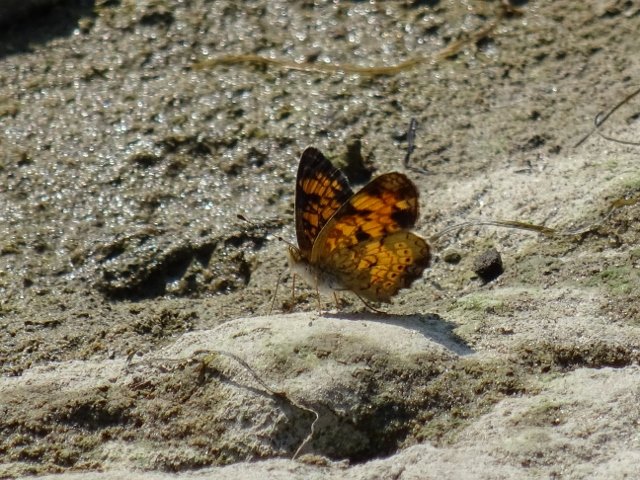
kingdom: Animalia
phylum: Arthropoda
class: Insecta
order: Lepidoptera
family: Nymphalidae
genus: Phyciodes
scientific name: Phyciodes tharos
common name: Pearl Crescent
